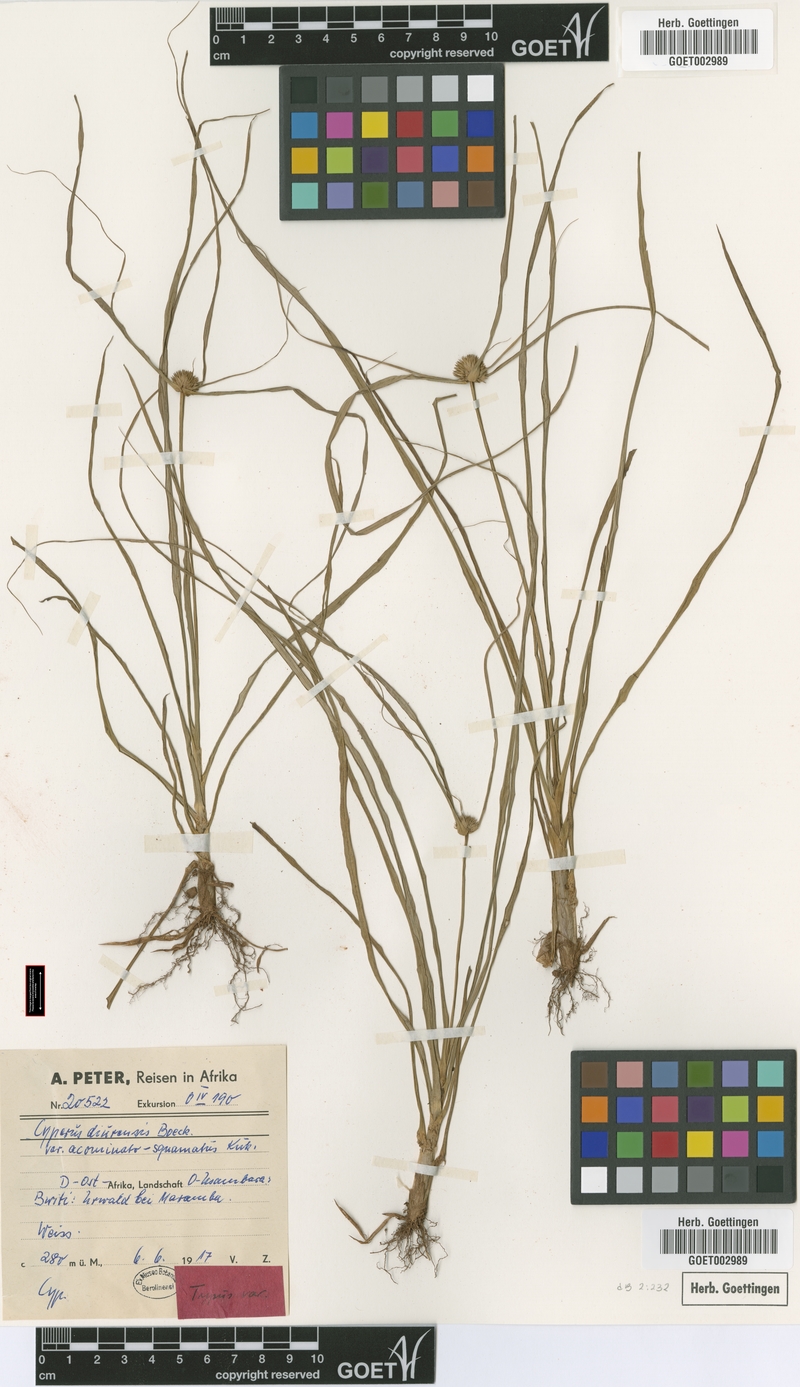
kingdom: Plantae
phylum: Tracheophyta
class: Liliopsida
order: Poales
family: Cyperaceae
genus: Cyperus
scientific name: Cyperus diurensis
